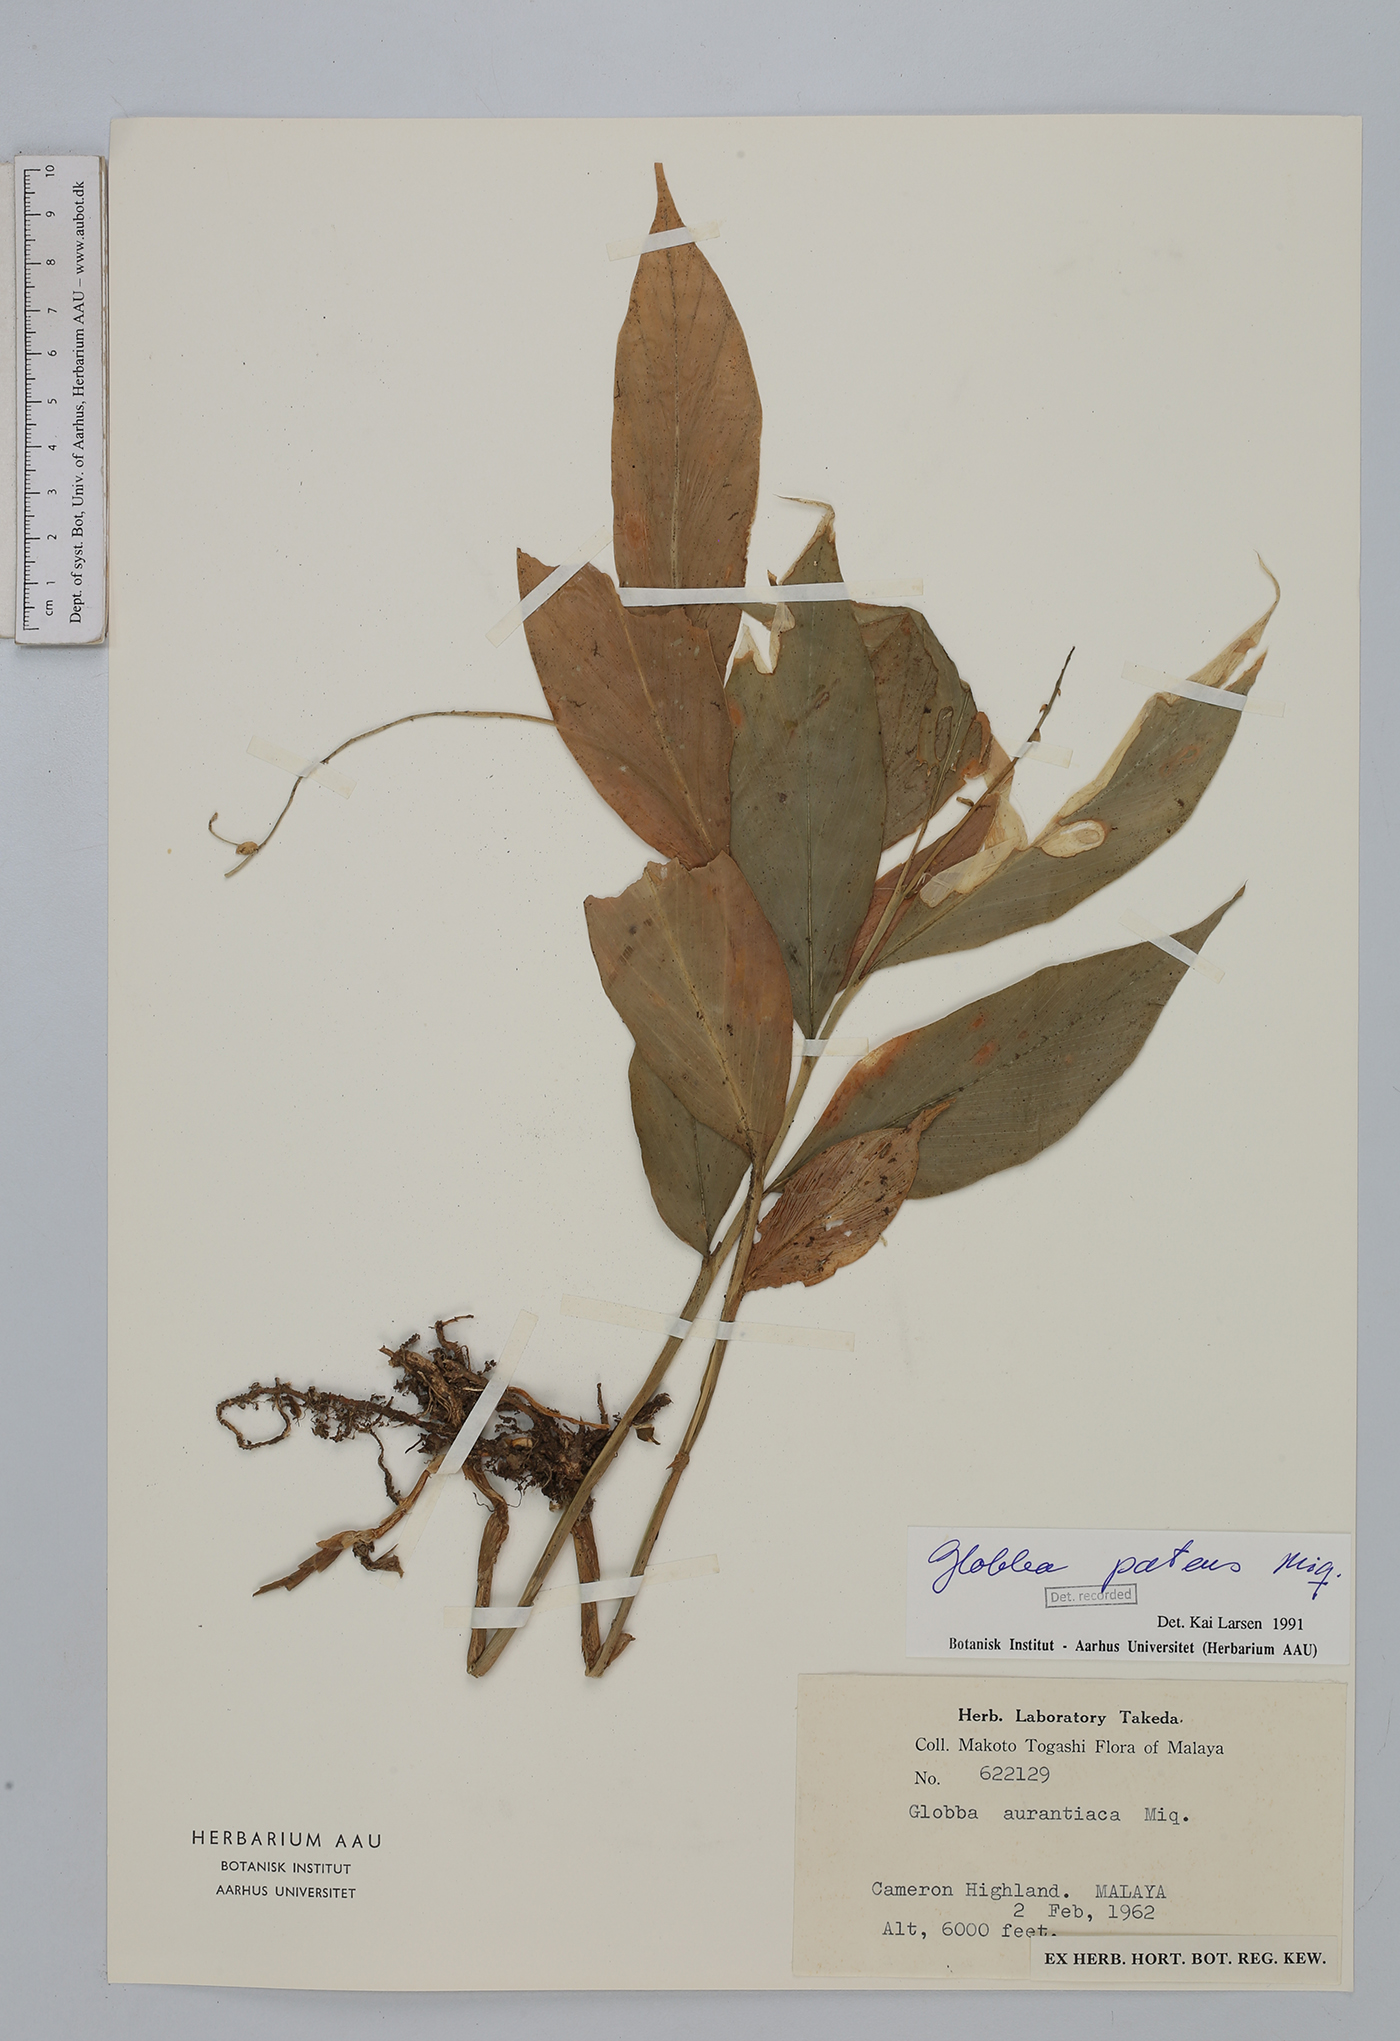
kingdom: Plantae
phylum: Tracheophyta
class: Liliopsida
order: Zingiberales
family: Zingiberaceae
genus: Globba
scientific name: Globba patens
